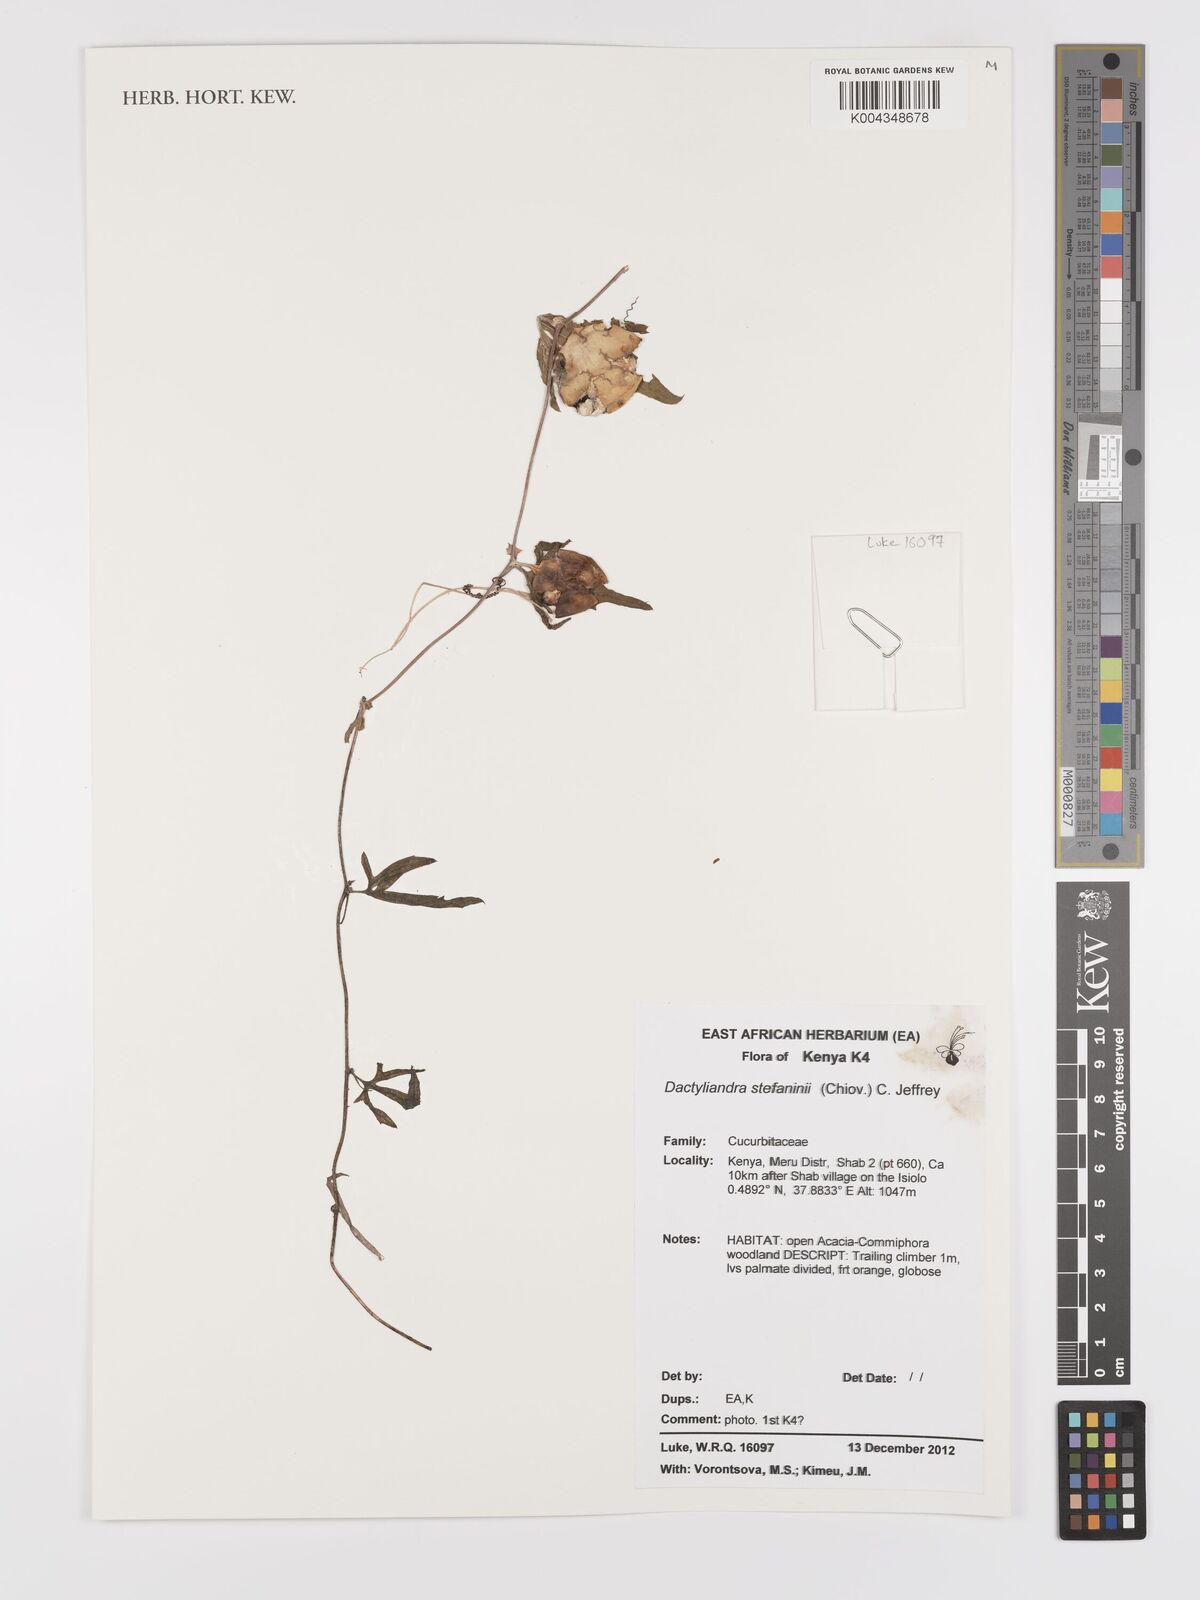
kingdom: Plantae
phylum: Tracheophyta
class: Magnoliopsida
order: Cucurbitales
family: Cucurbitaceae
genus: Dactyliandra
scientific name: Dactyliandra stefaninii
